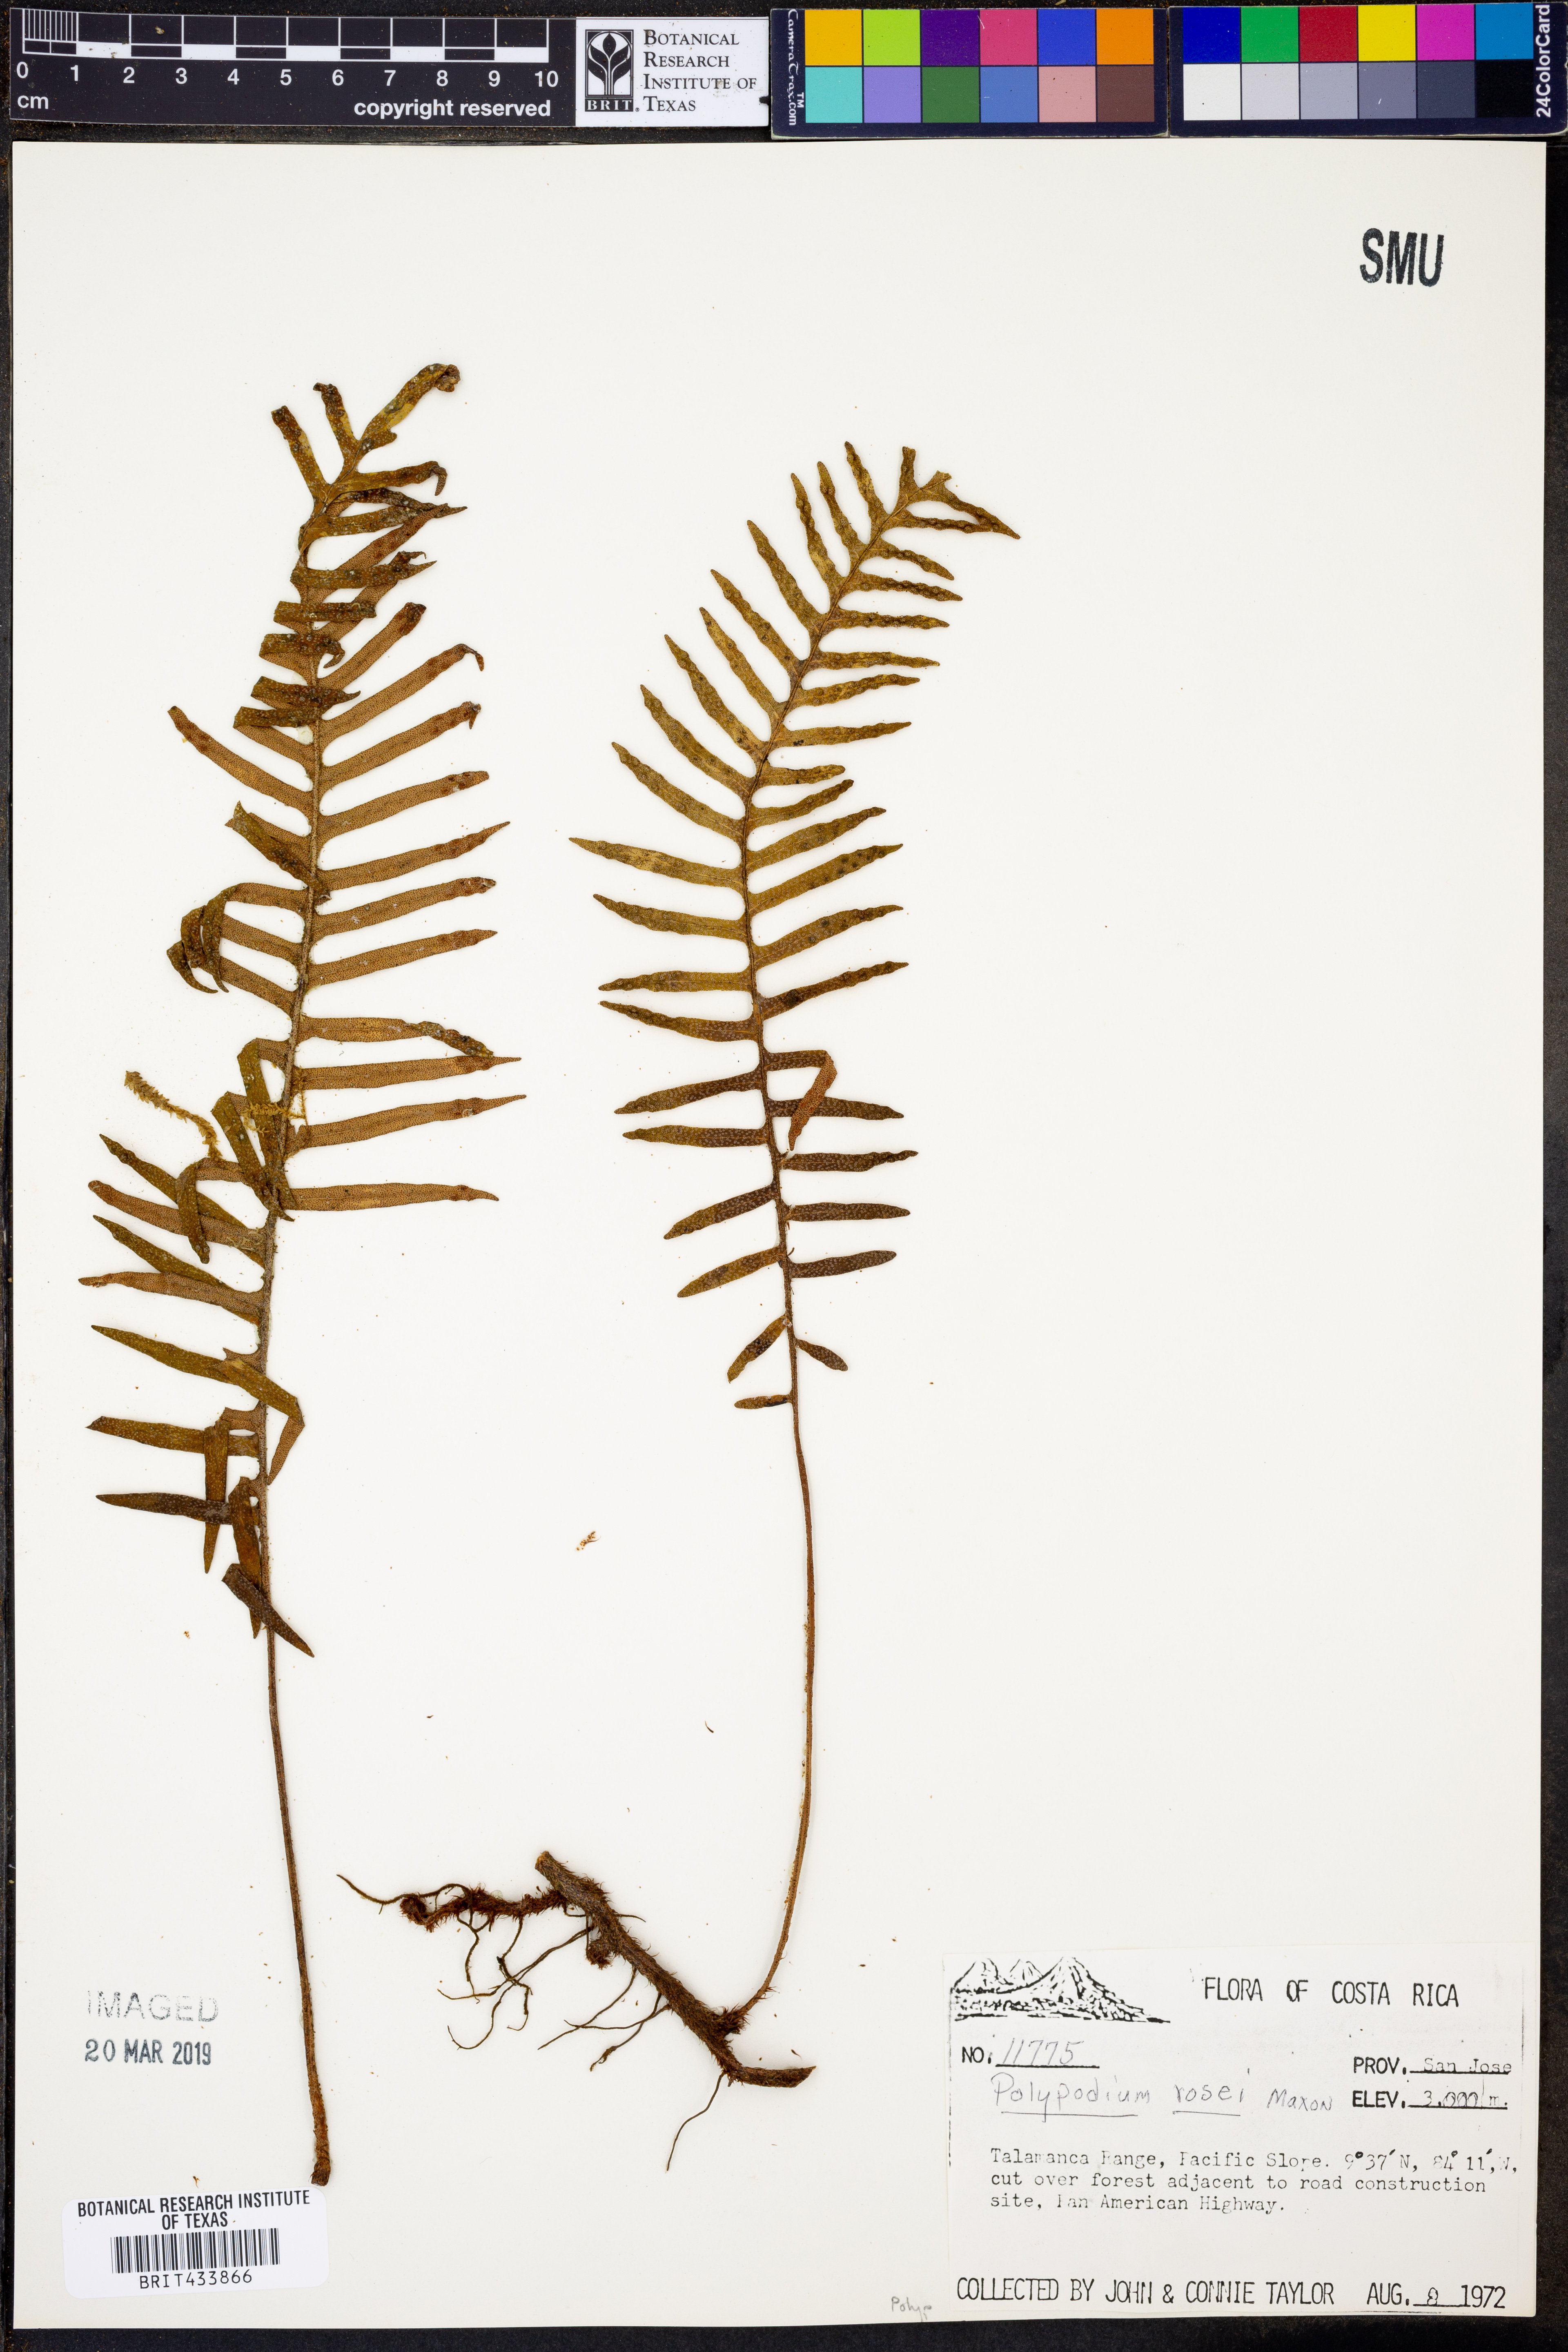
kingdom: Plantae
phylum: Tracheophyta
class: Polypodiopsida
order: Polypodiales
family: Polypodiaceae
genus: Pleopeltis
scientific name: Pleopeltis rosei
